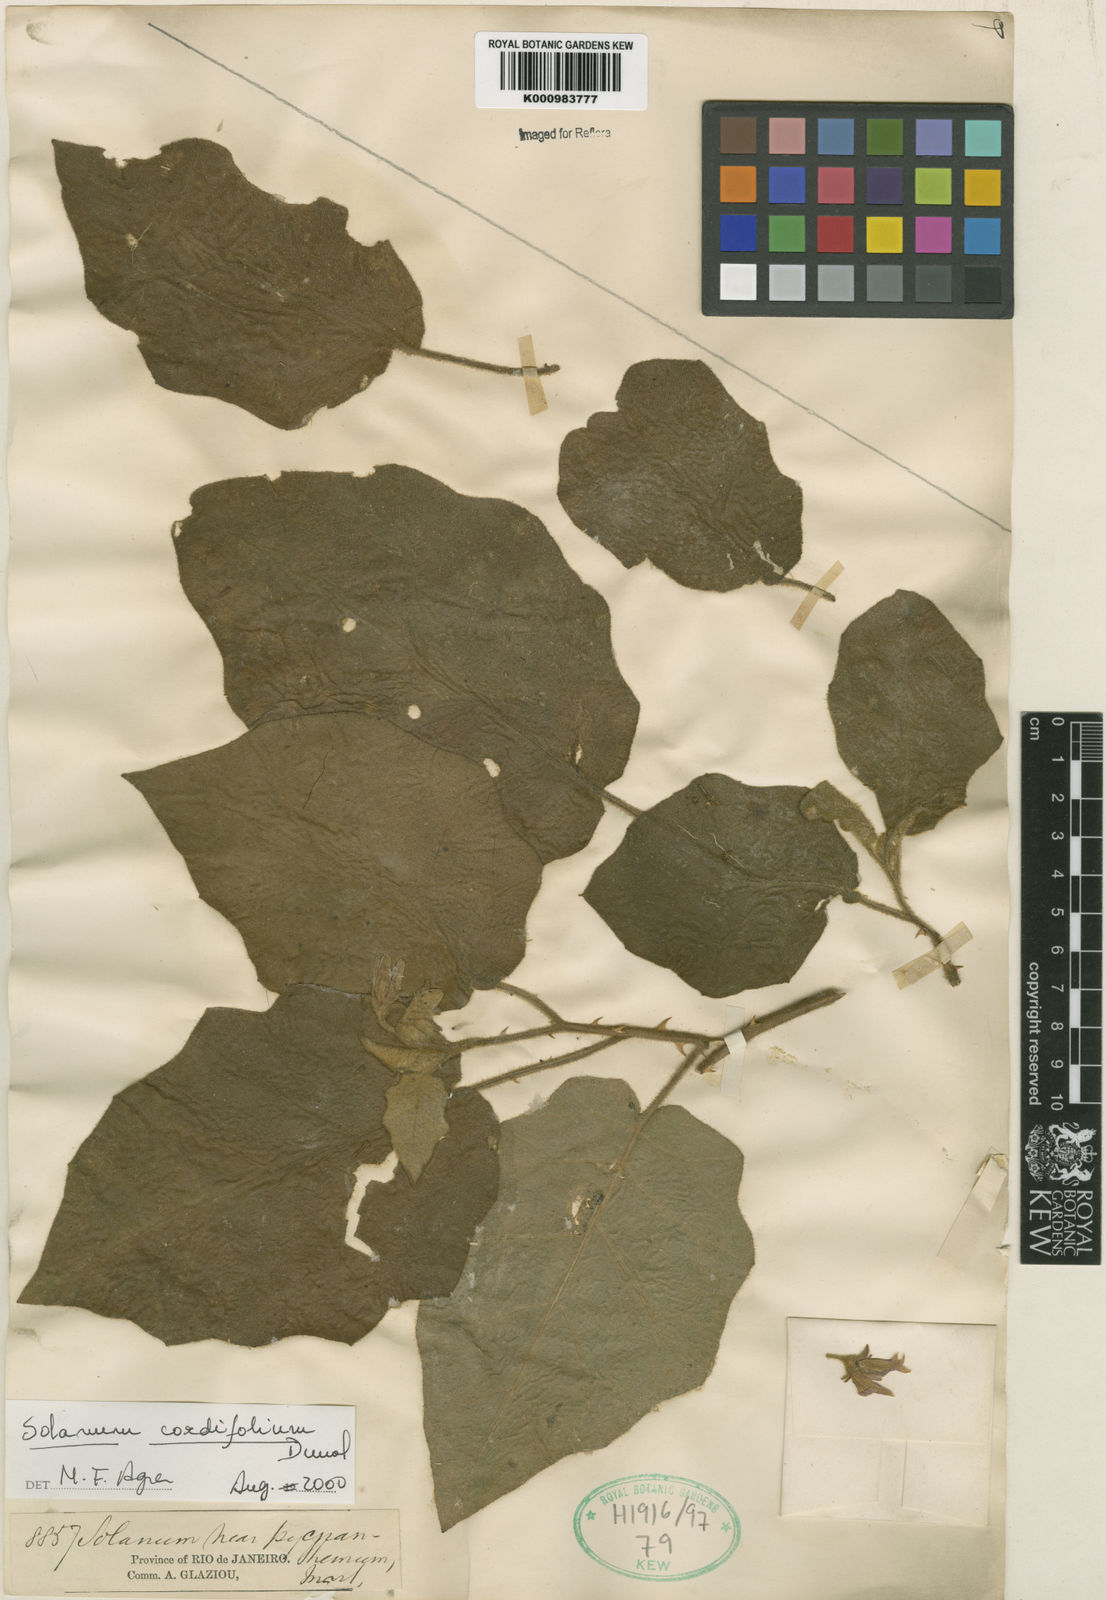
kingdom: Plantae
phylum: Tracheophyta
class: Magnoliopsida
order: Solanales
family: Solanaceae
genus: Solanum
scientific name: Solanum cordifolium
